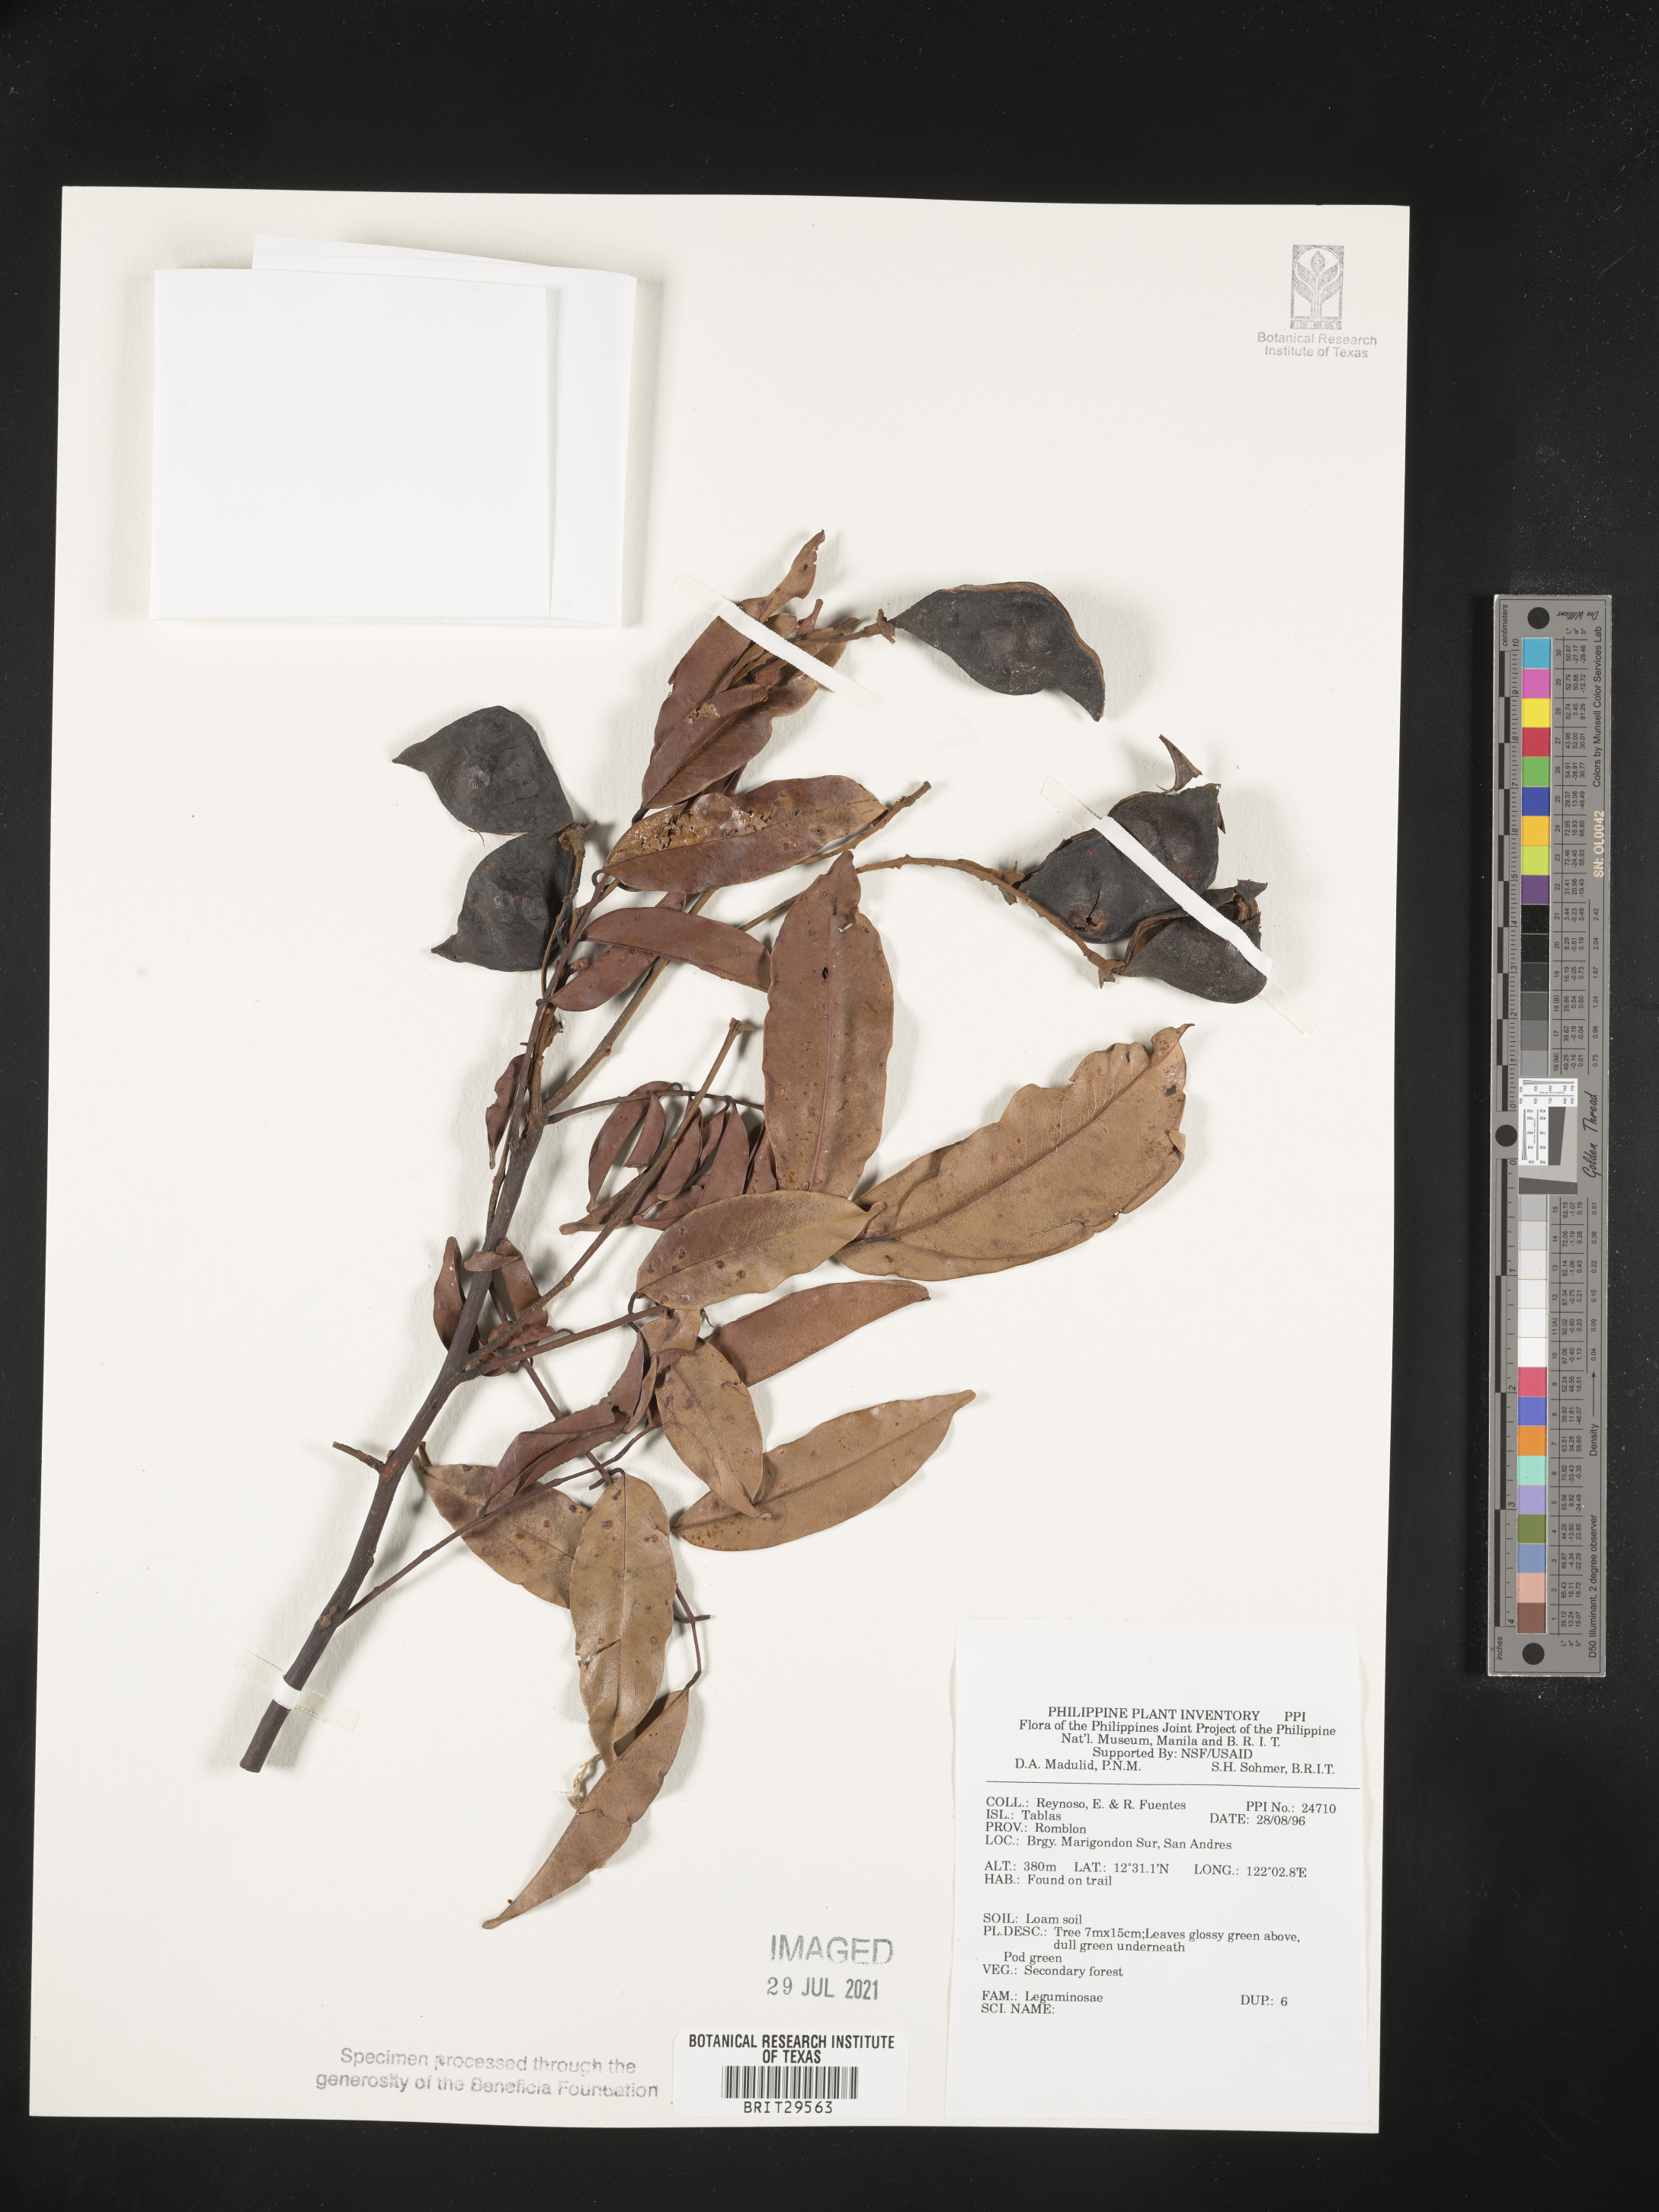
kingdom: Plantae
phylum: Tracheophyta
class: Magnoliopsida
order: Fabales
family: Fabaceae
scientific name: Fabaceae
